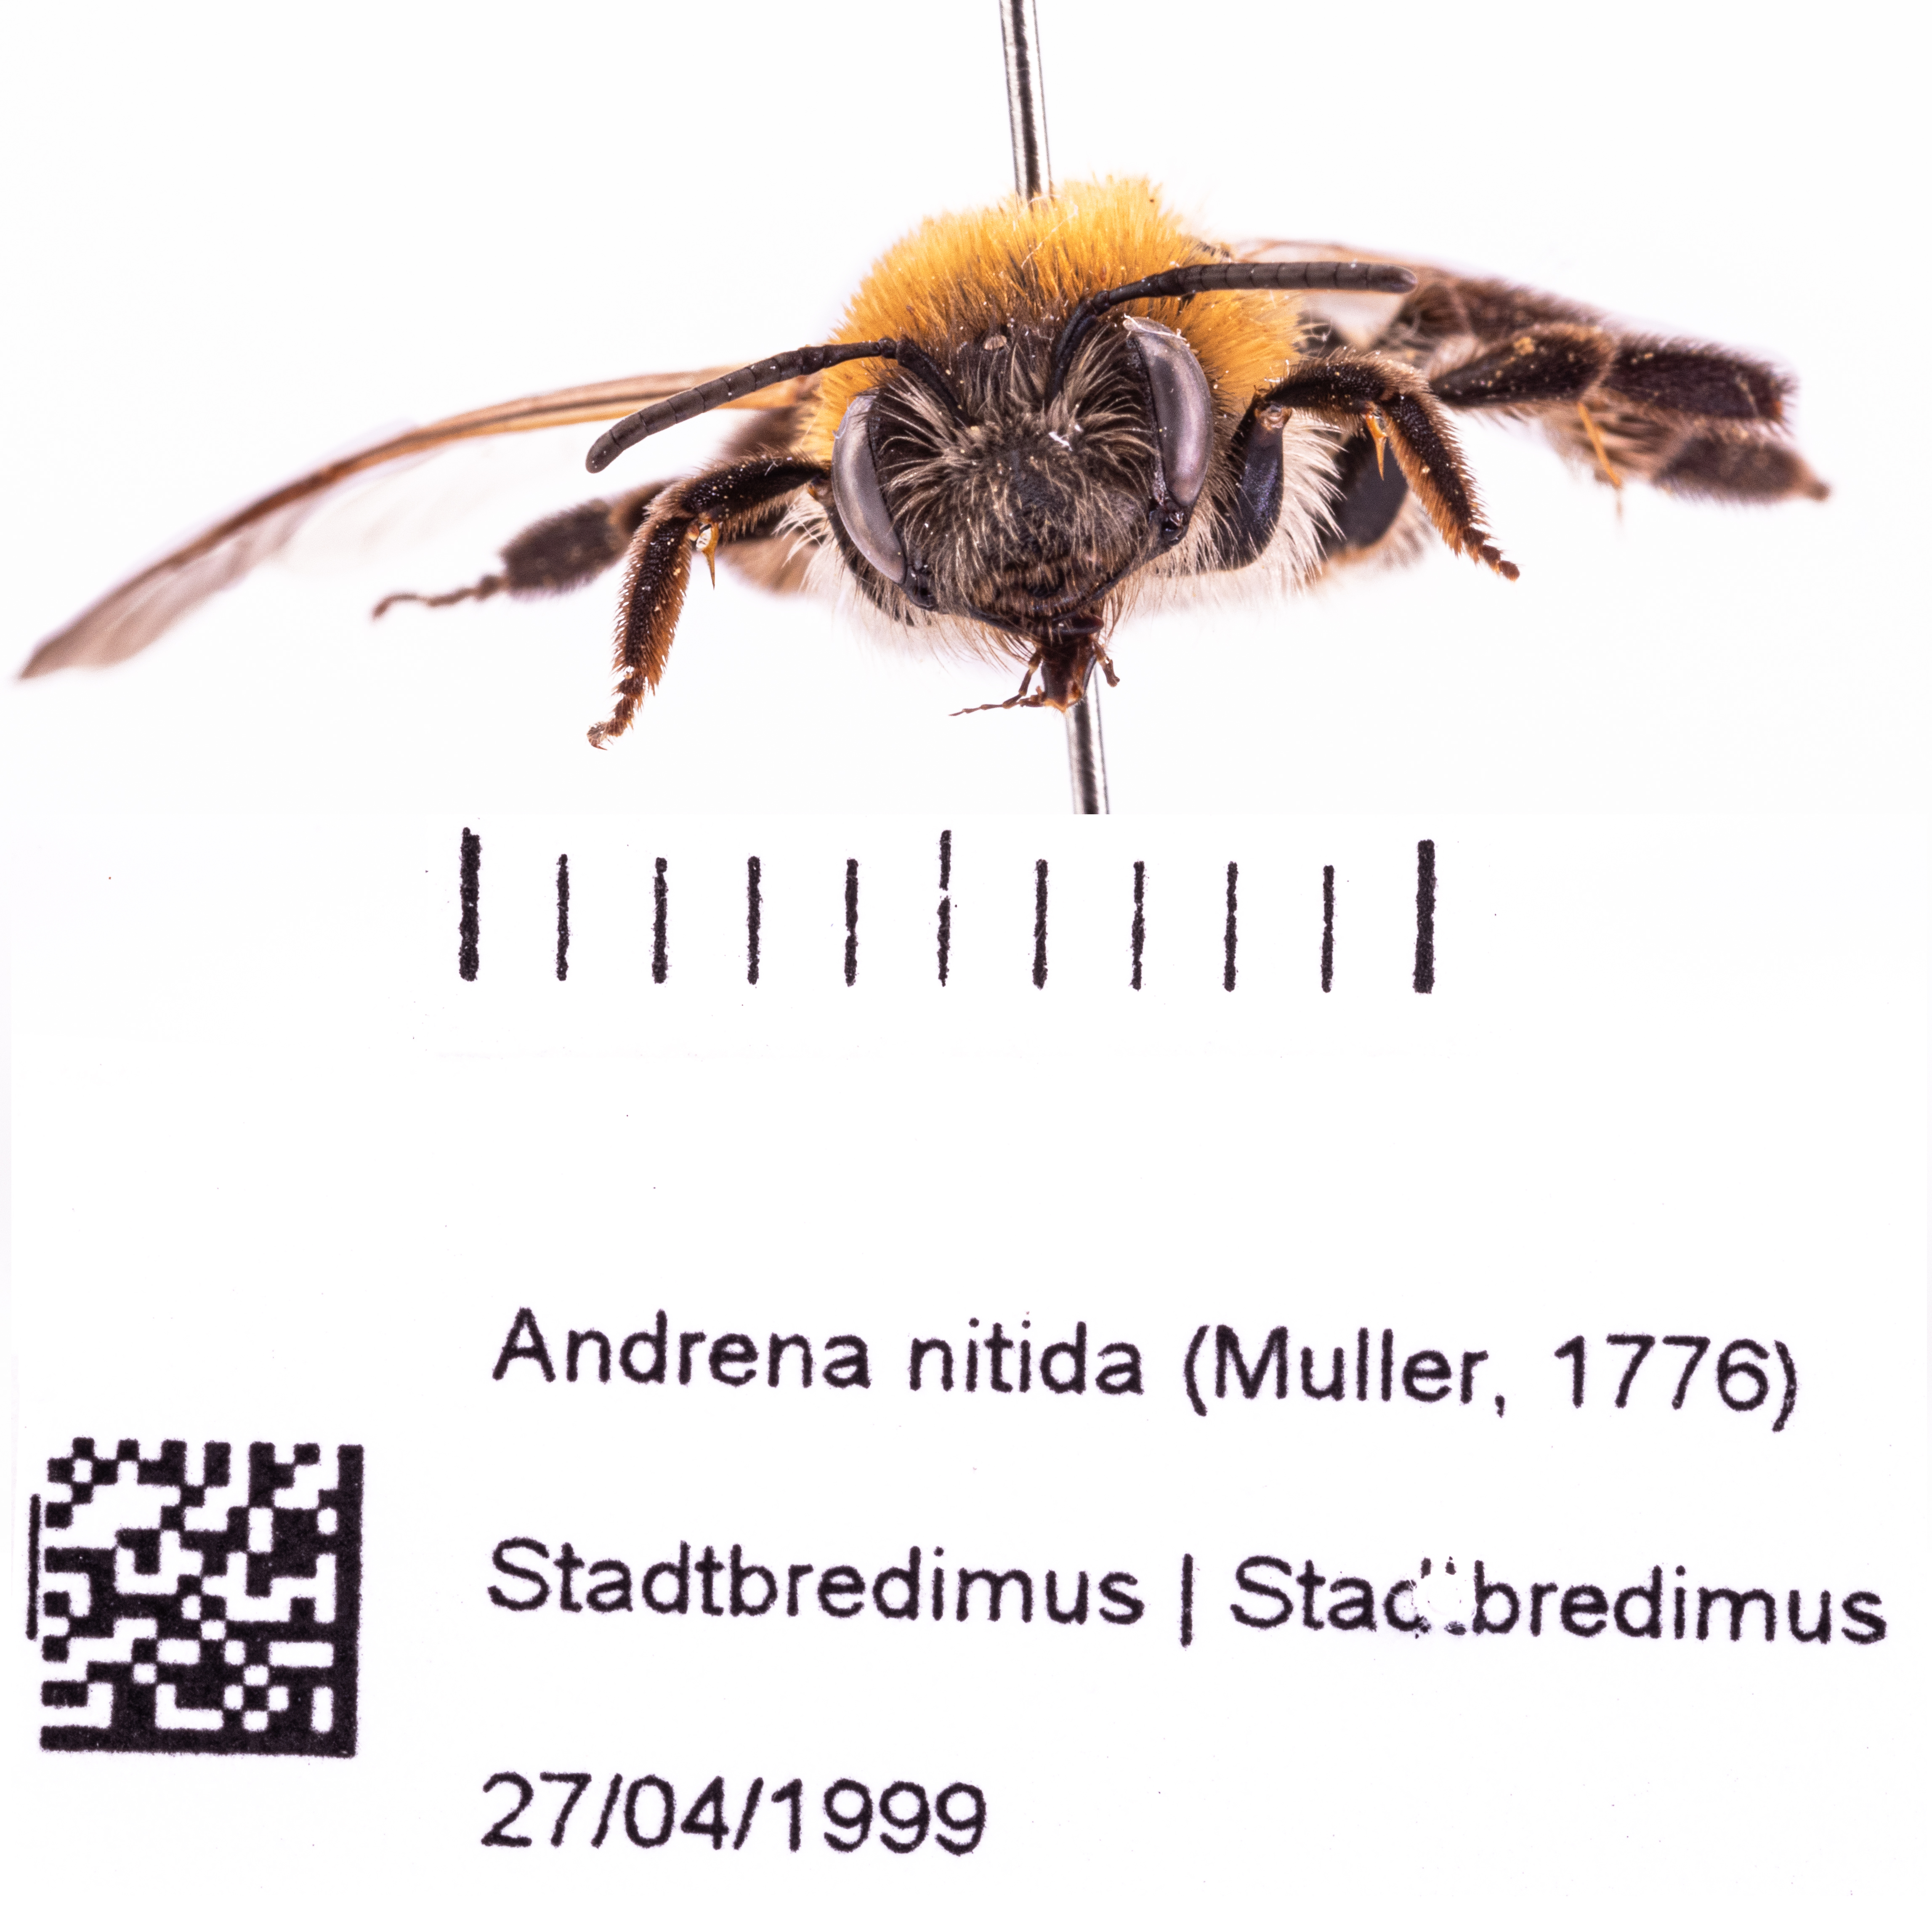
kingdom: Animalia
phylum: Arthropoda
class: Insecta
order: Hymenoptera
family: Andrenidae
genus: Andrena
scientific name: Andrena nitida
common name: Grey-patched mining bee
